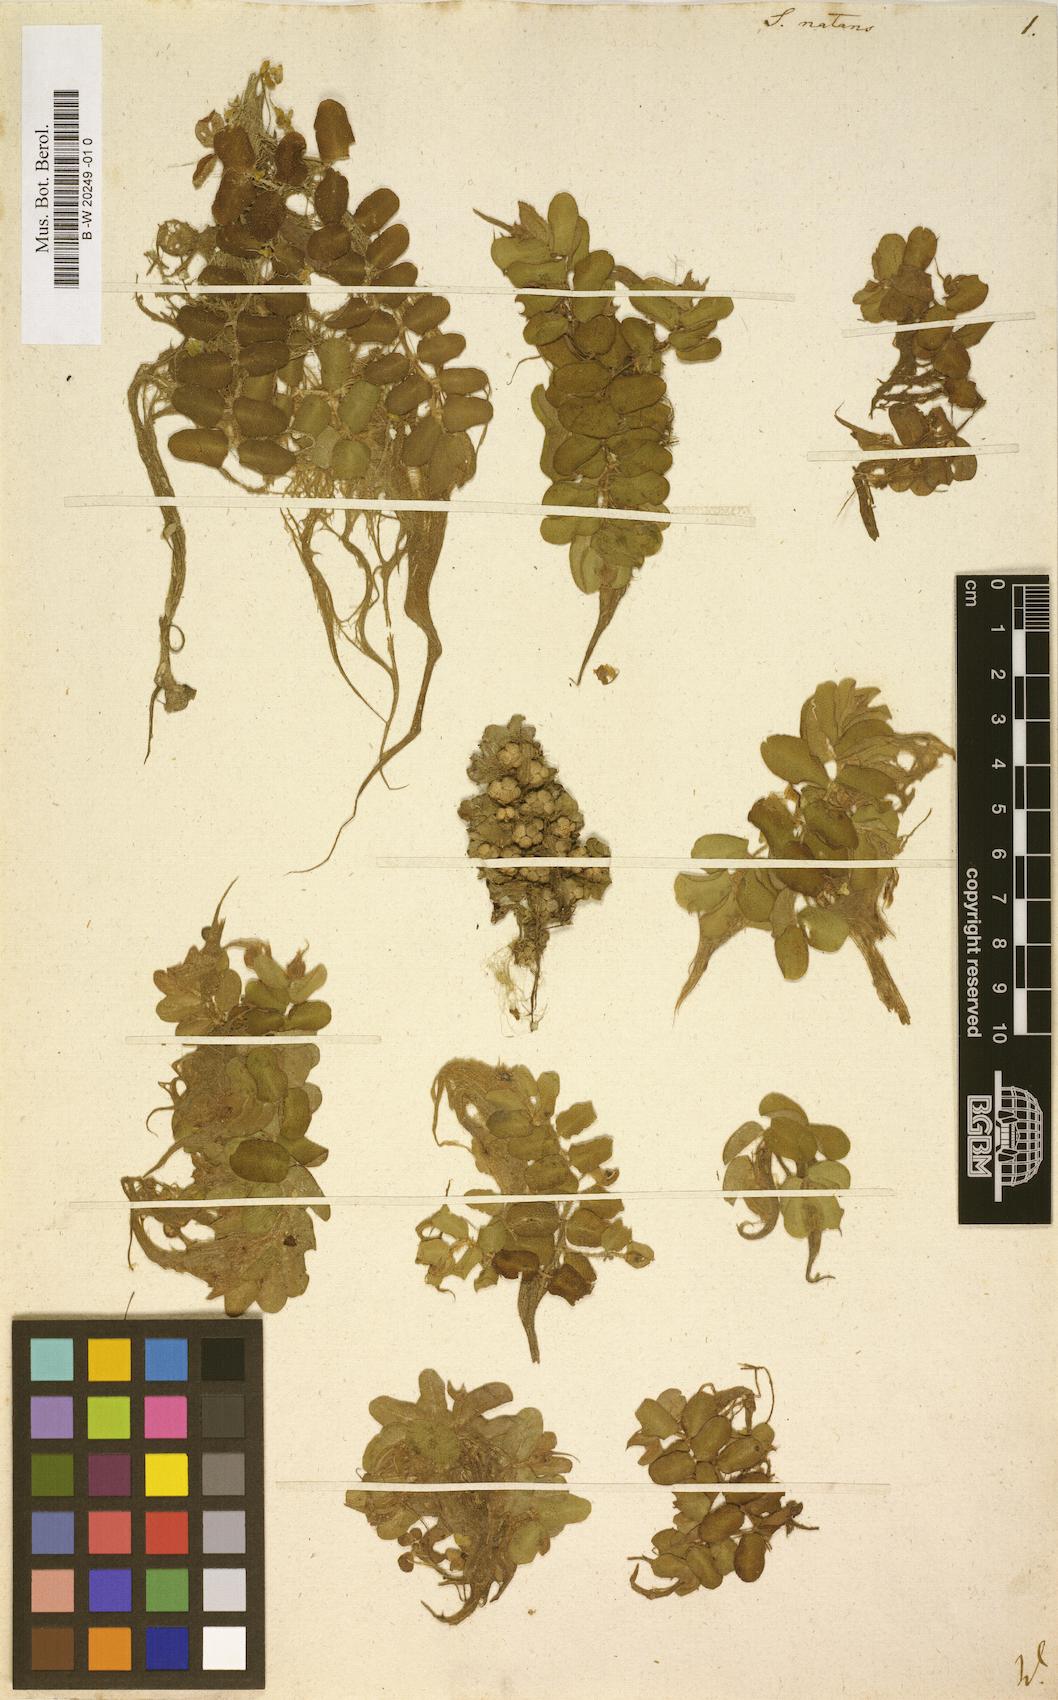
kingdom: Plantae
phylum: Tracheophyta
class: Polypodiopsida
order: Salviniales
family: Salviniaceae
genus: Salvinia
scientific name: Salvinia natans
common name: Floating fern
